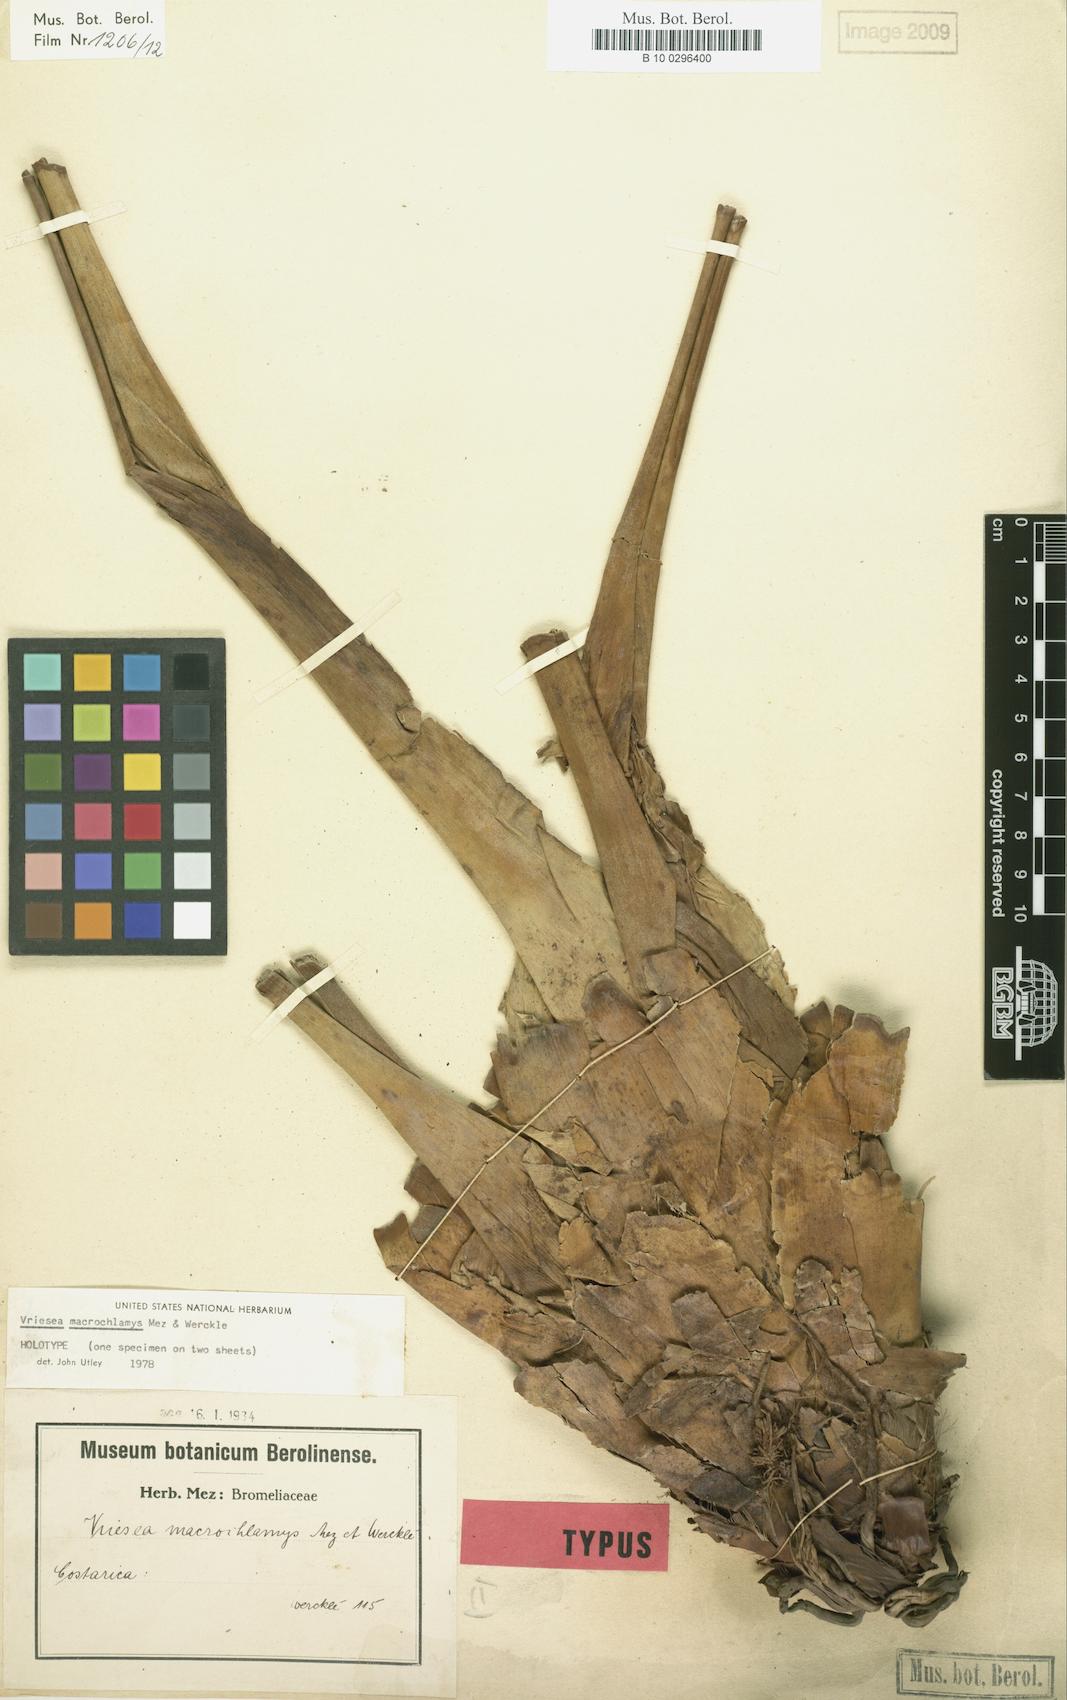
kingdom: Plantae
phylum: Tracheophyta
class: Liliopsida
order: Poales
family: Bromeliaceae
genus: Werauhia
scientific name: Werauhia macrochlamys
